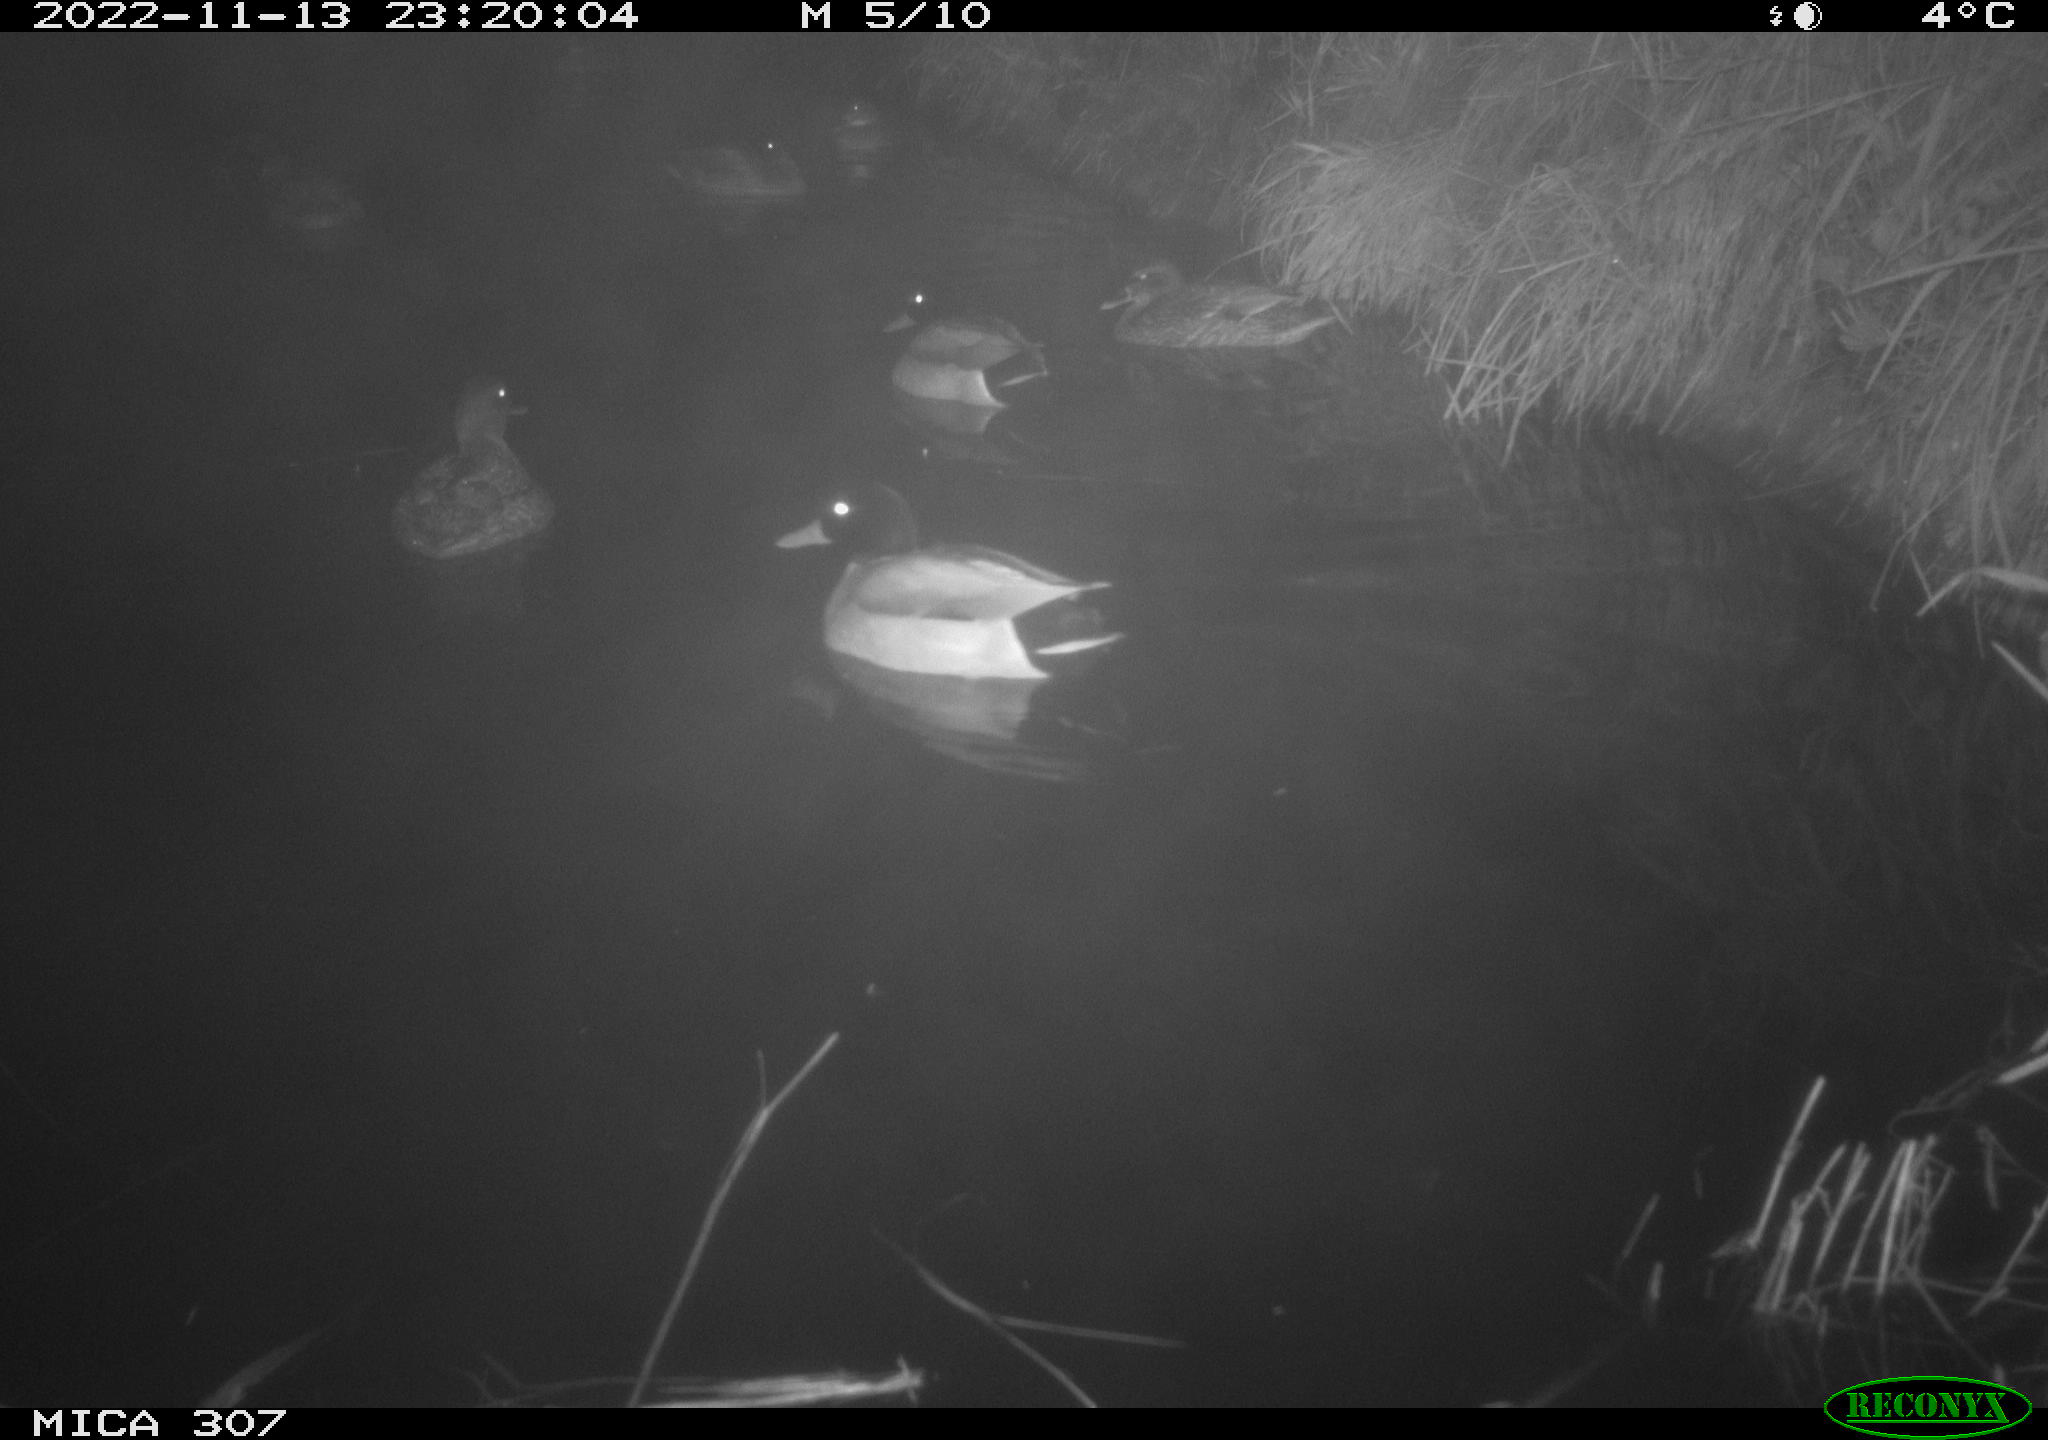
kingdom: Animalia
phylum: Chordata
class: Aves
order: Anseriformes
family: Anatidae
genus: Anas
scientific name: Anas
